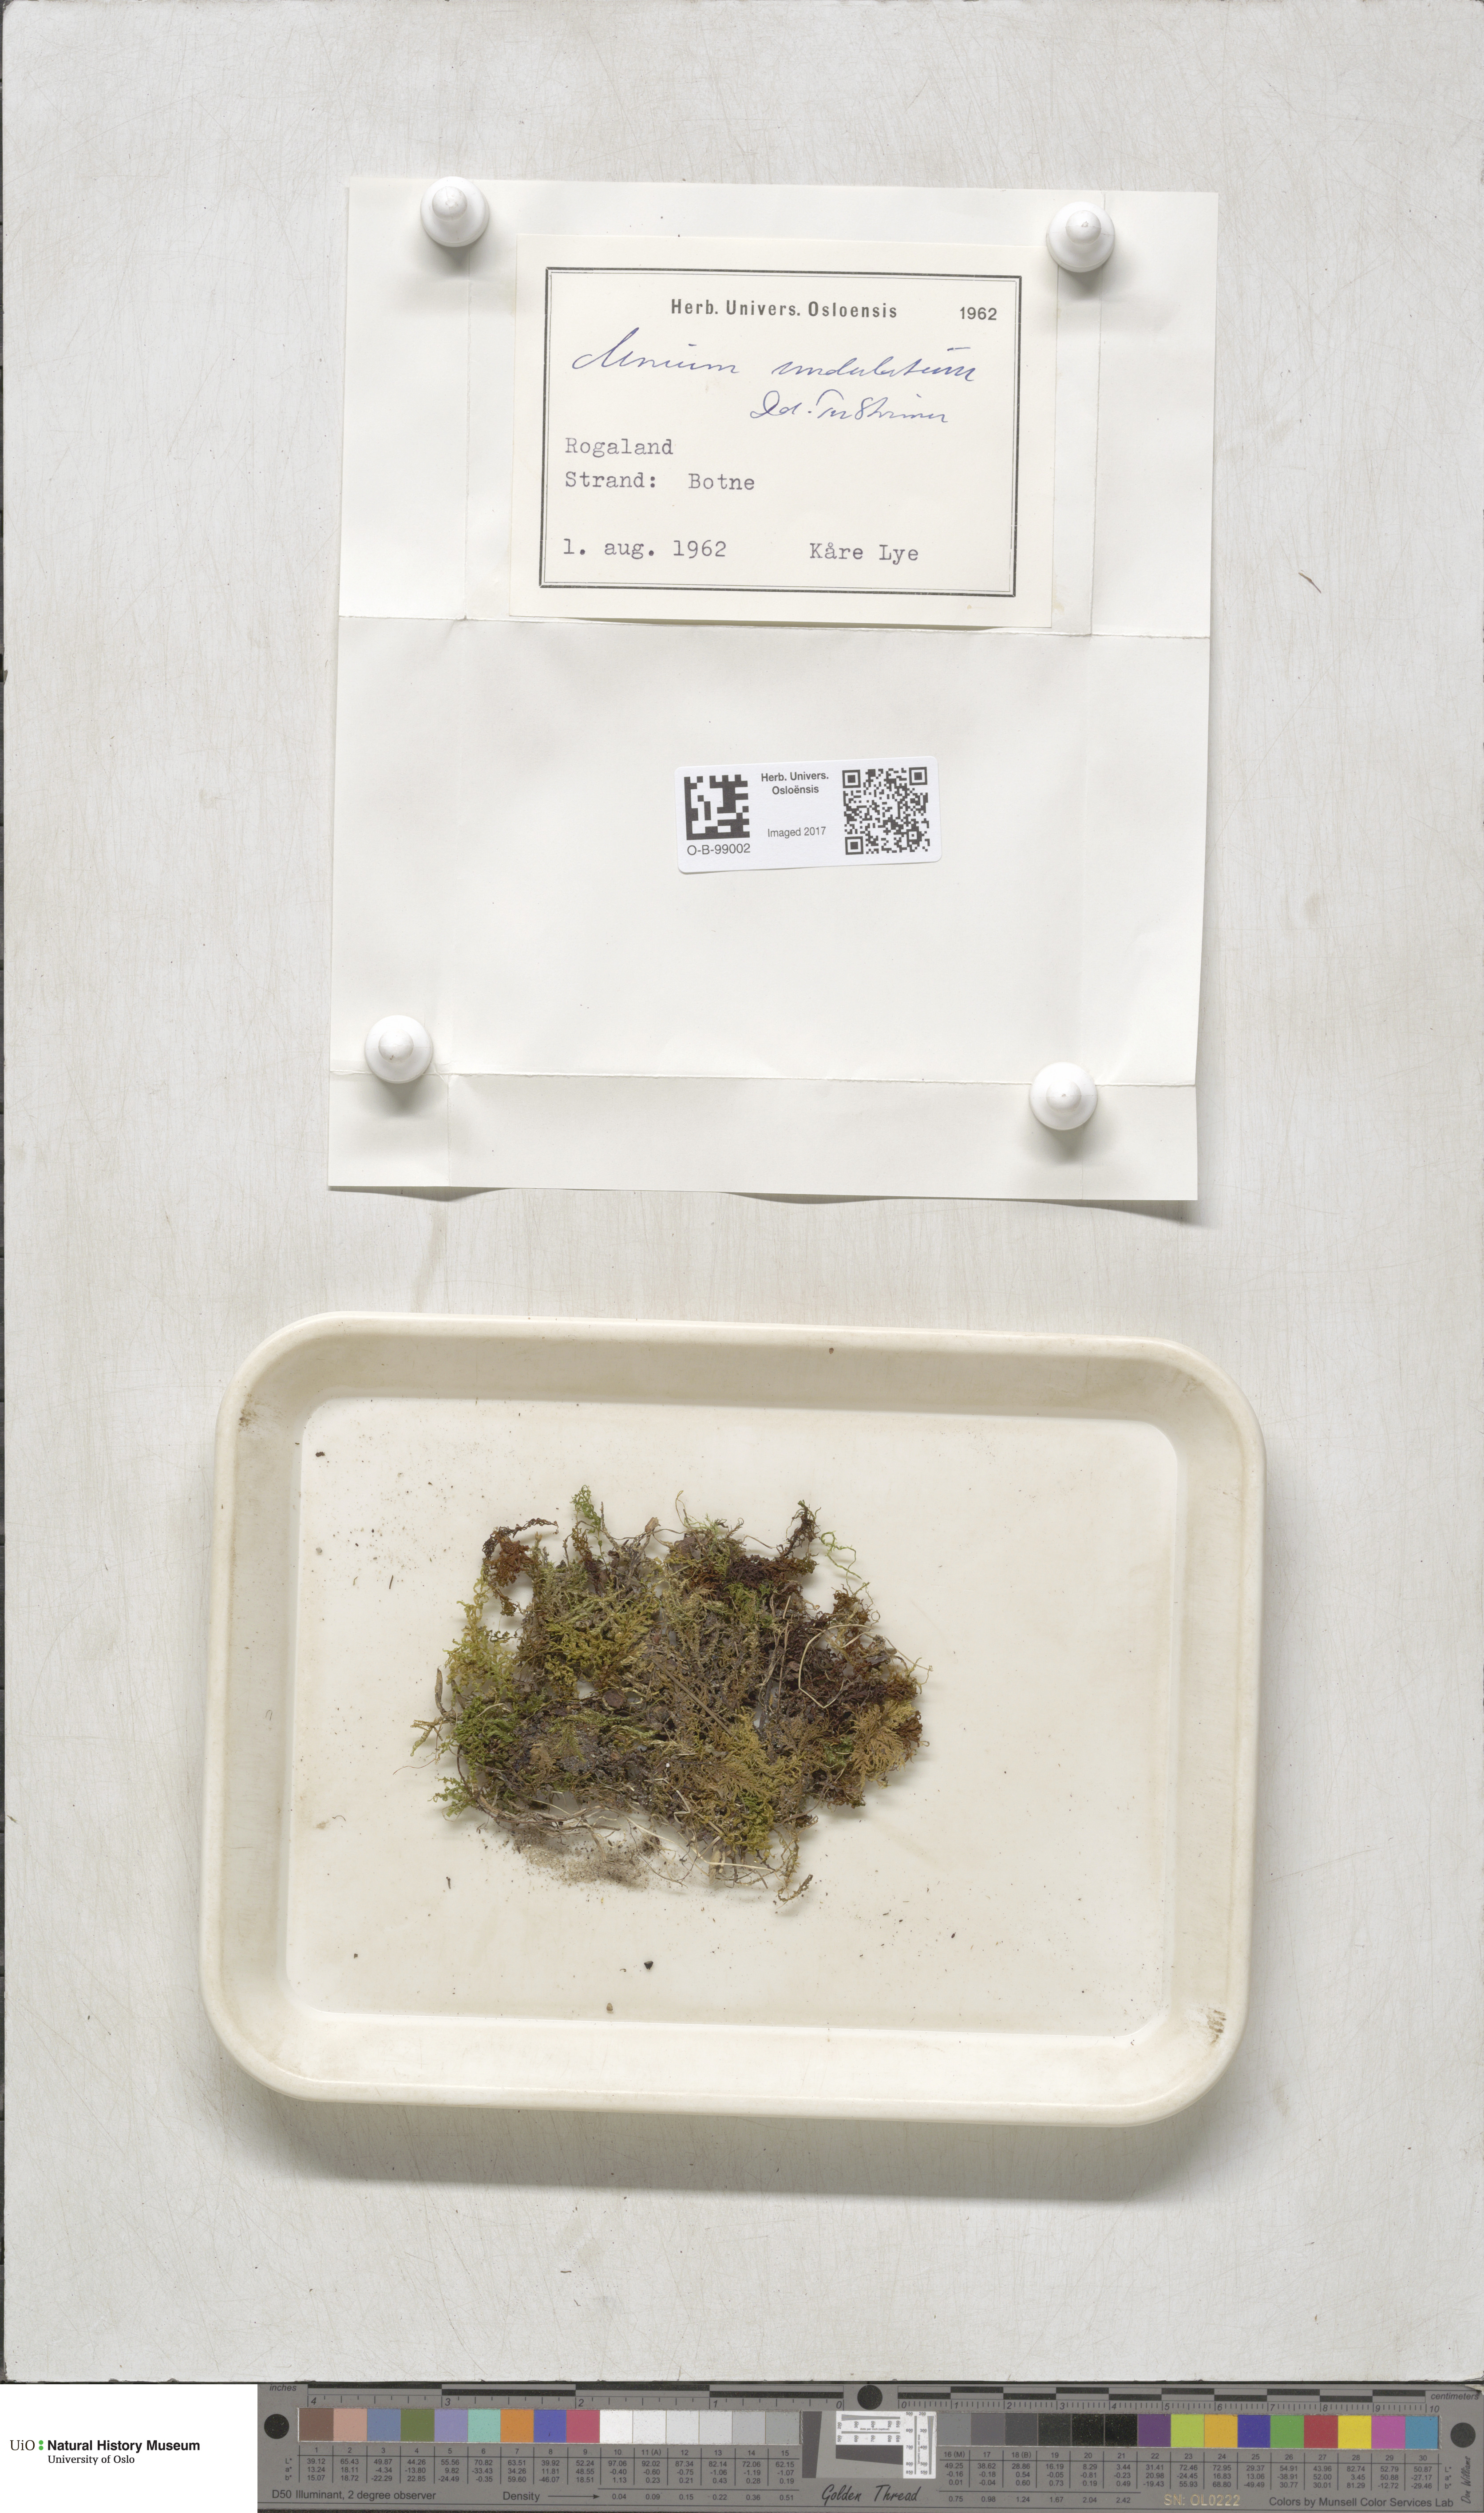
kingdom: Plantae
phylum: Bryophyta
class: Bryopsida
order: Bryales
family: Mniaceae
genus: Plagiomnium
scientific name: Plagiomnium undulatum
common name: Hart's-tongue thyme-moss
